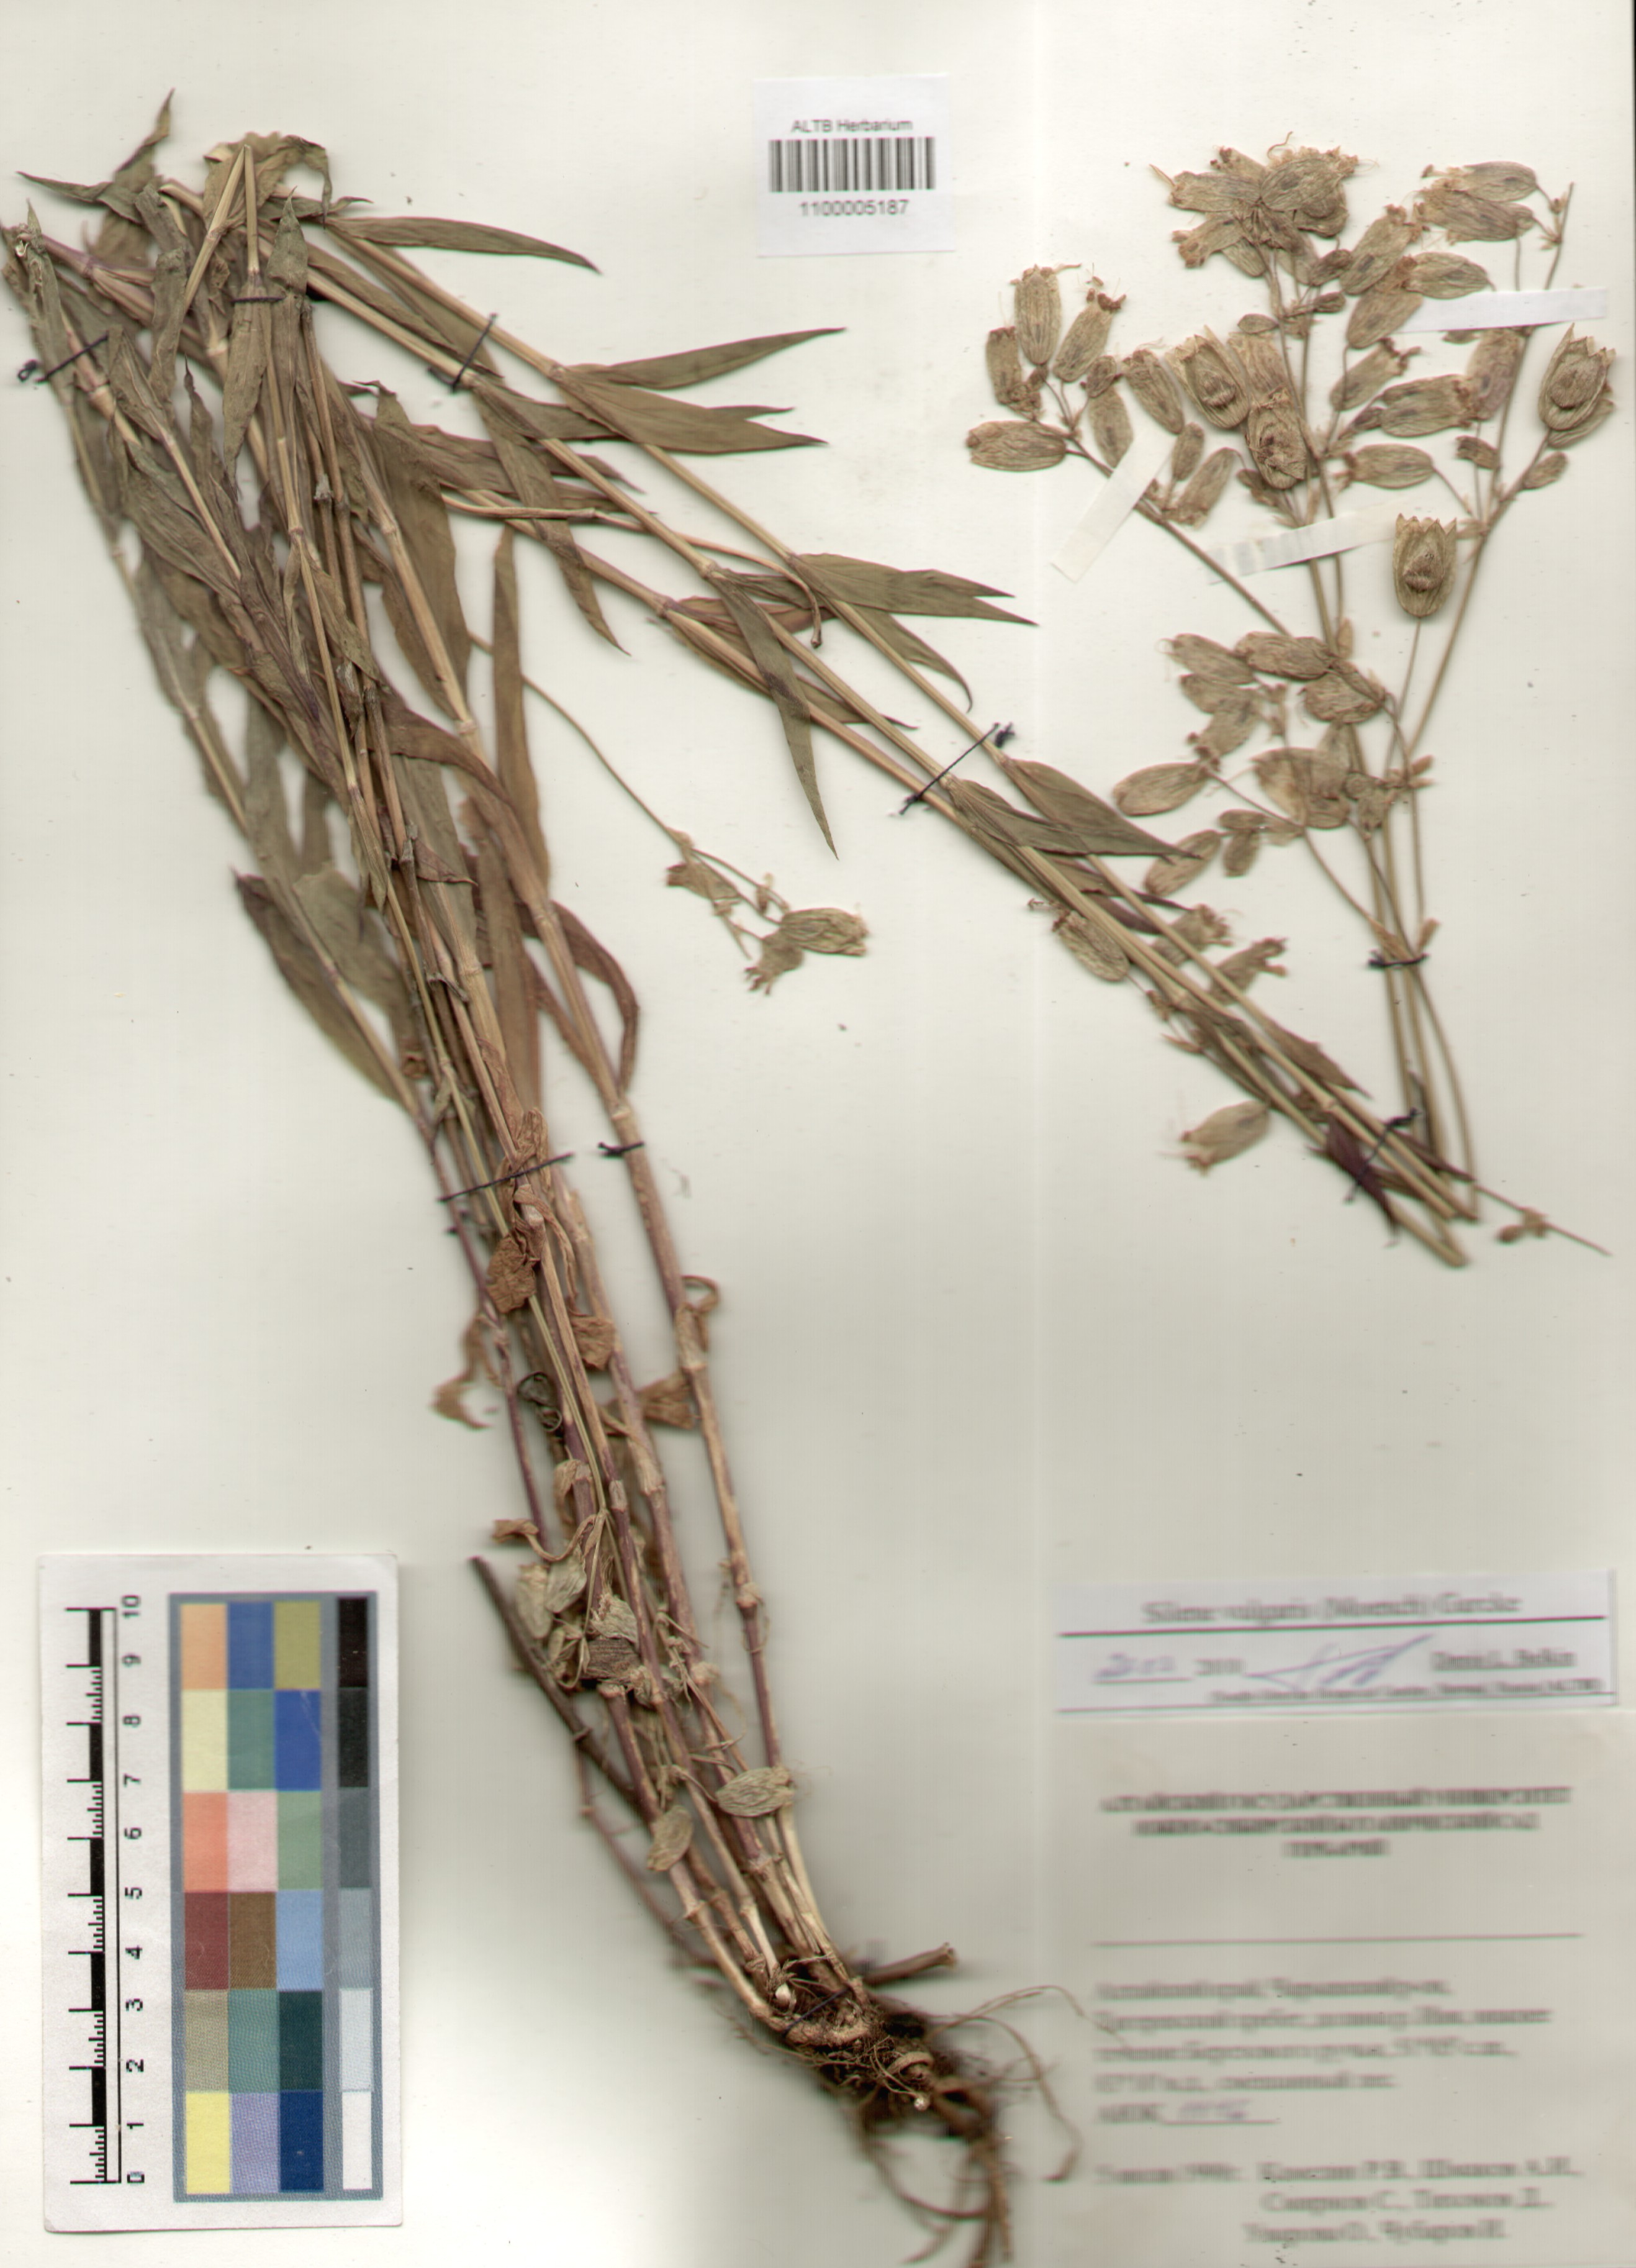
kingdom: Plantae
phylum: Tracheophyta
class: Magnoliopsida
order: Caryophyllales
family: Caryophyllaceae
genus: Silene
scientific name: Silene vulgaris
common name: Bladder campion
